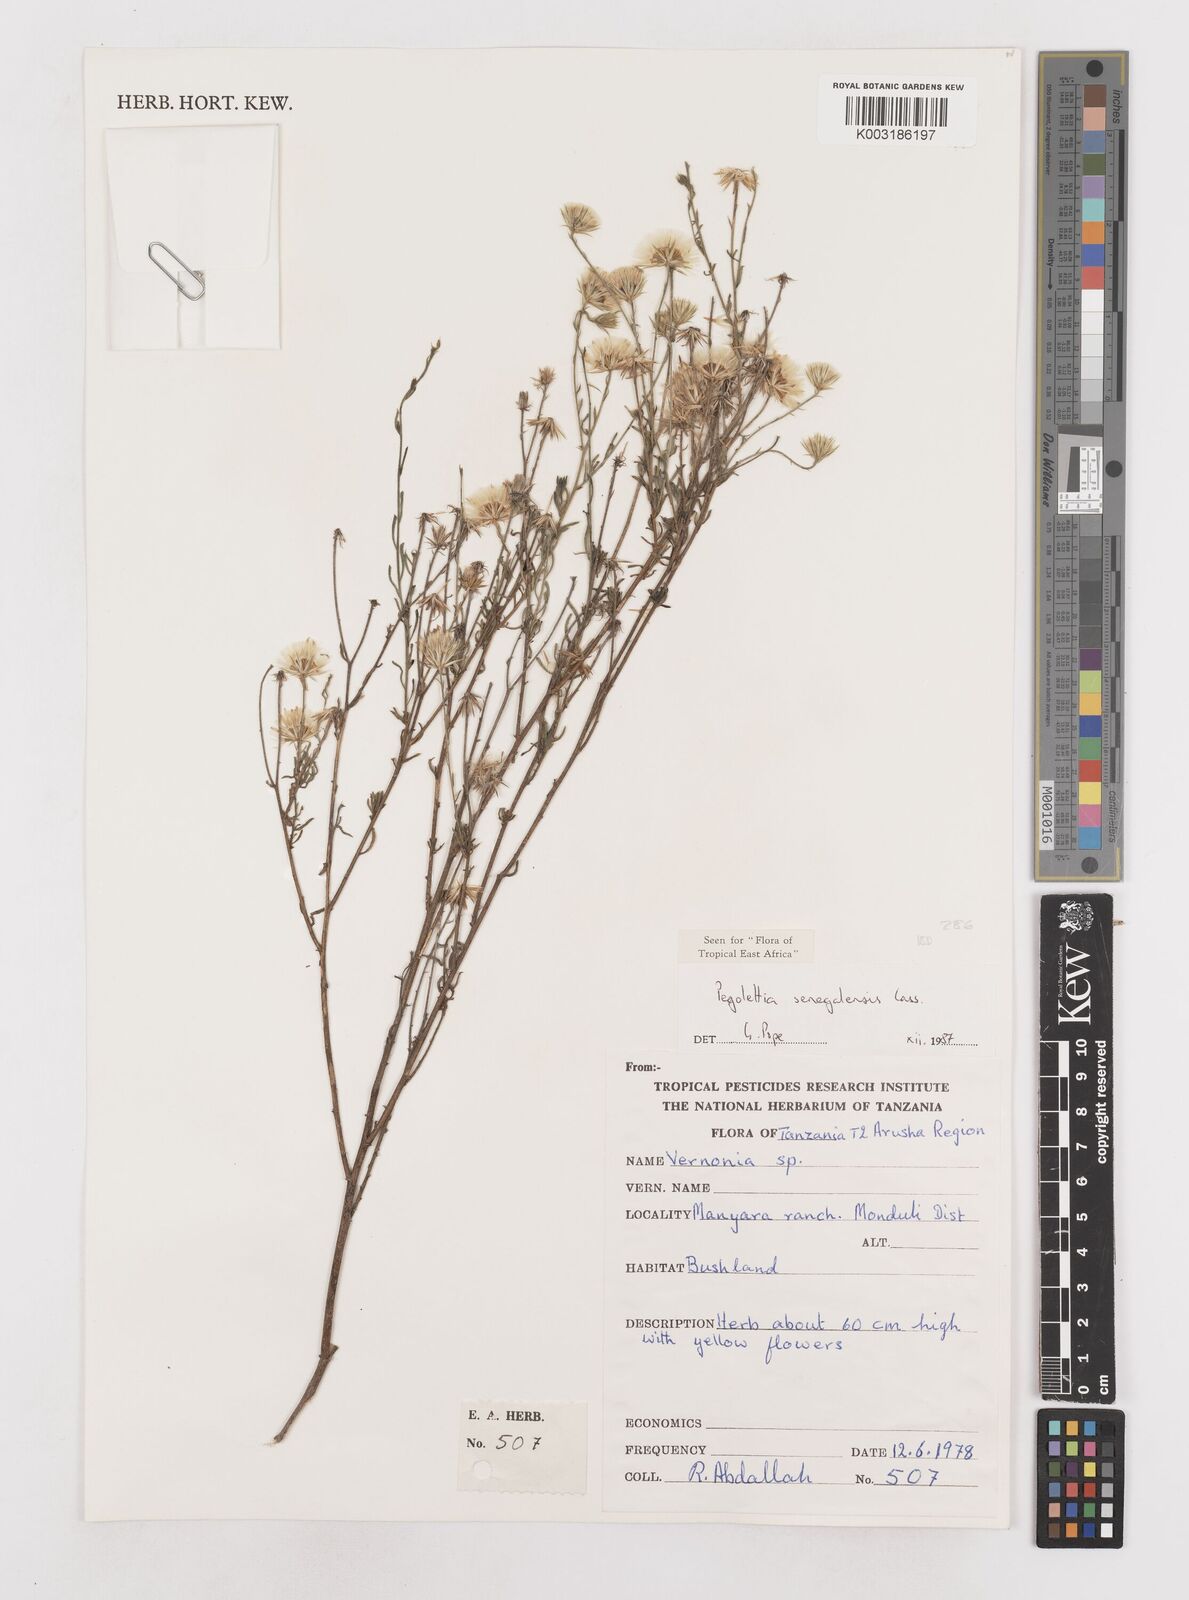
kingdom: Plantae
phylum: Tracheophyta
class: Magnoliopsida
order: Asterales
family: Asteraceae
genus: Pegolettia
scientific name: Pegolettia senegalensis
